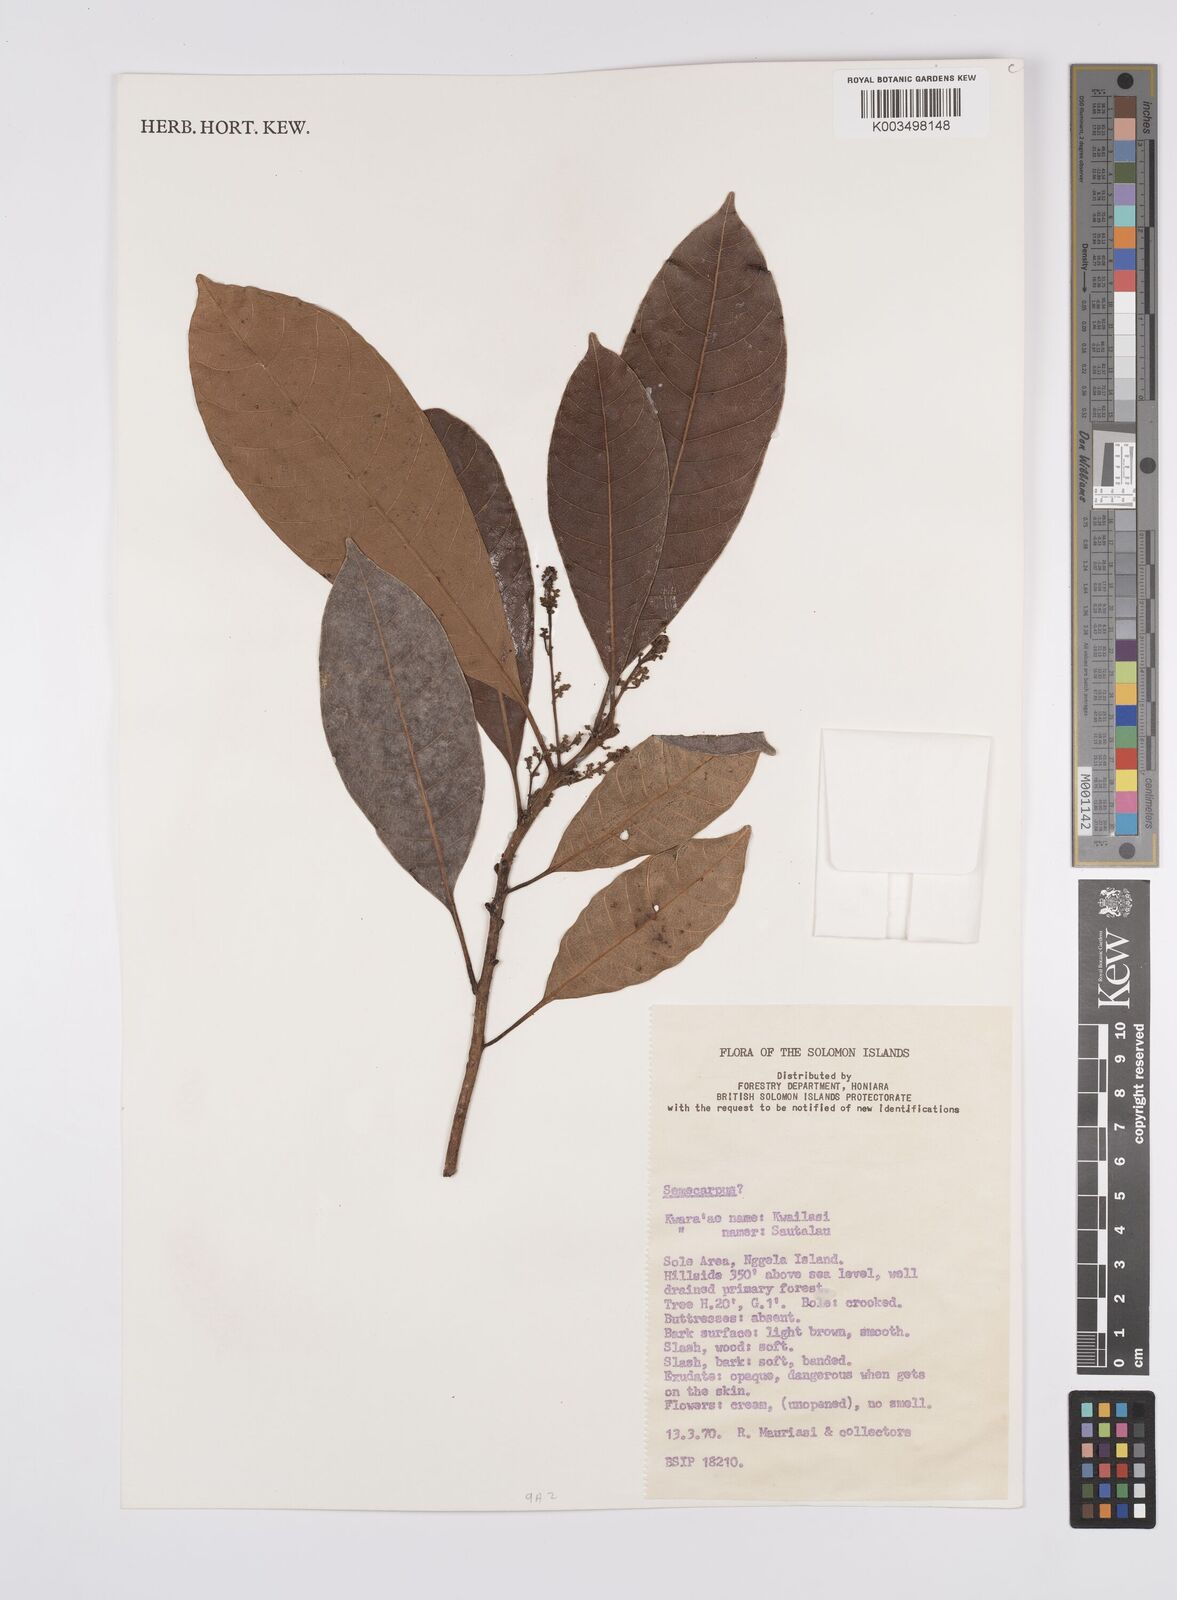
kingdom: Plantae
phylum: Tracheophyta
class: Magnoliopsida
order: Sapindales
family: Anacardiaceae
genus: Semecarpus
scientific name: Semecarpus
